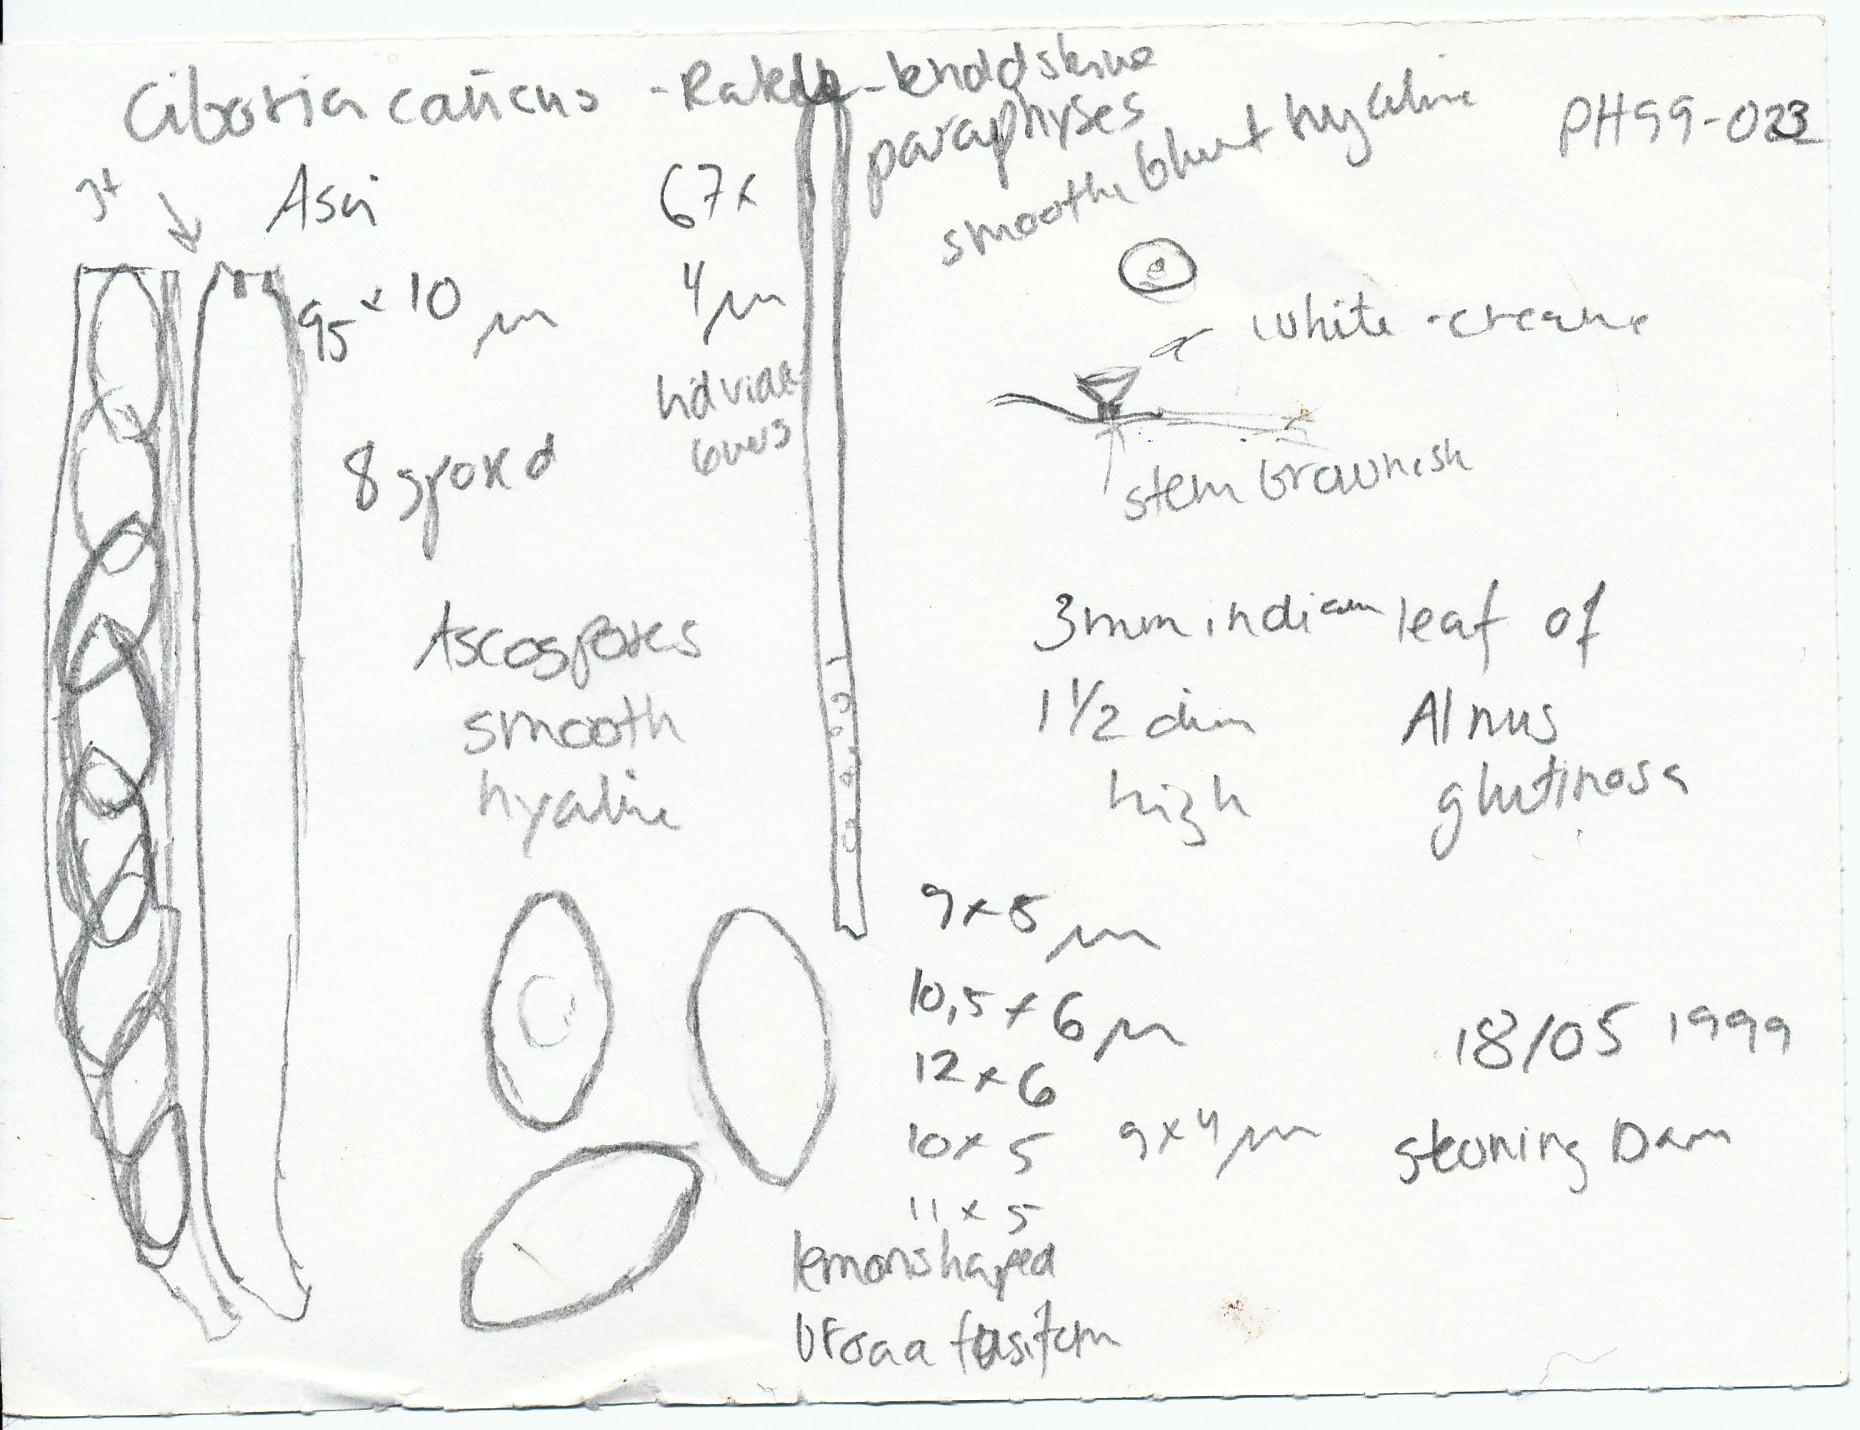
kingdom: Fungi
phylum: Ascomycota
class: Leotiomycetes
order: Helotiales
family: Sclerotiniaceae
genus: Ciboria
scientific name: Ciboria amentacea
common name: ellerakle-knoldskive
